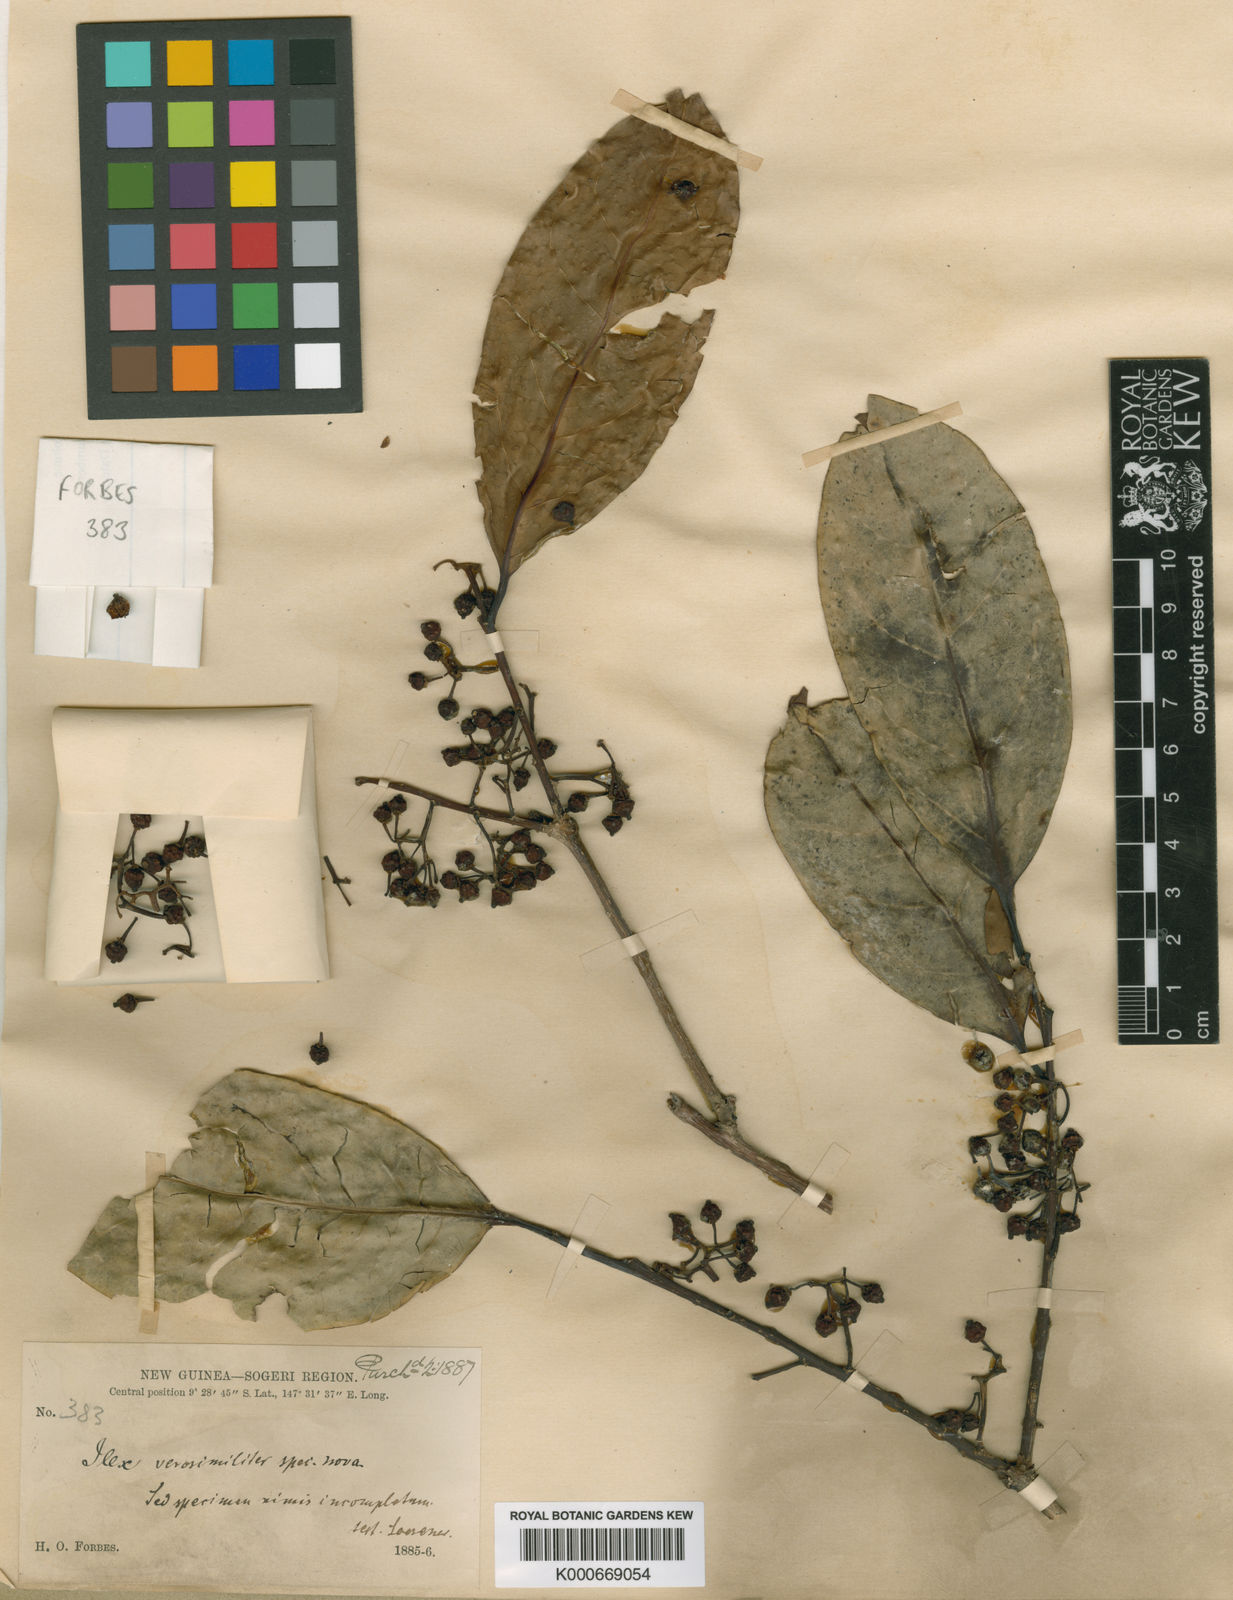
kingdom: Plantae
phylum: Tracheophyta
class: Magnoliopsida
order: Aquifoliales
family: Aquifoliaceae
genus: Ilex
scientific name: Ilex arnhemensis
